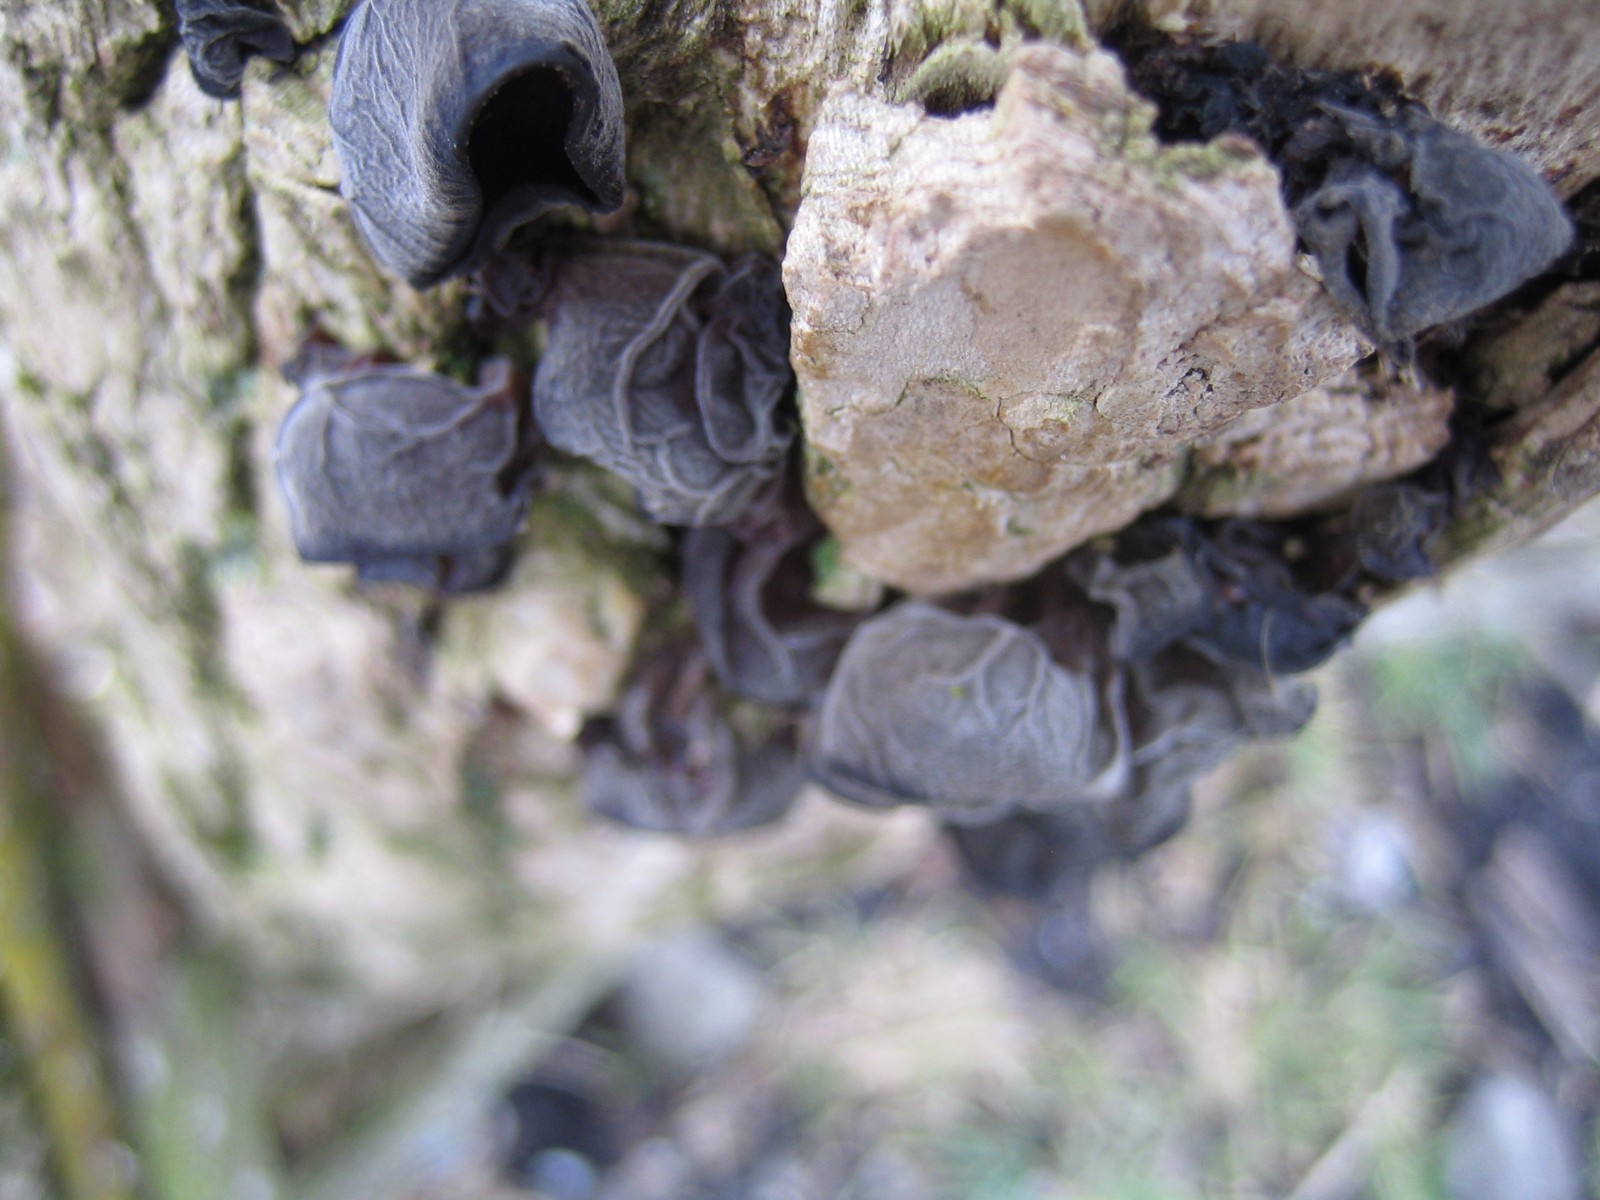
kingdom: Fungi
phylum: Basidiomycota
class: Agaricomycetes
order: Auriculariales
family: Auriculariaceae
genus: Auricularia
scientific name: Auricularia auricula-judae
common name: almindelig judasøre
